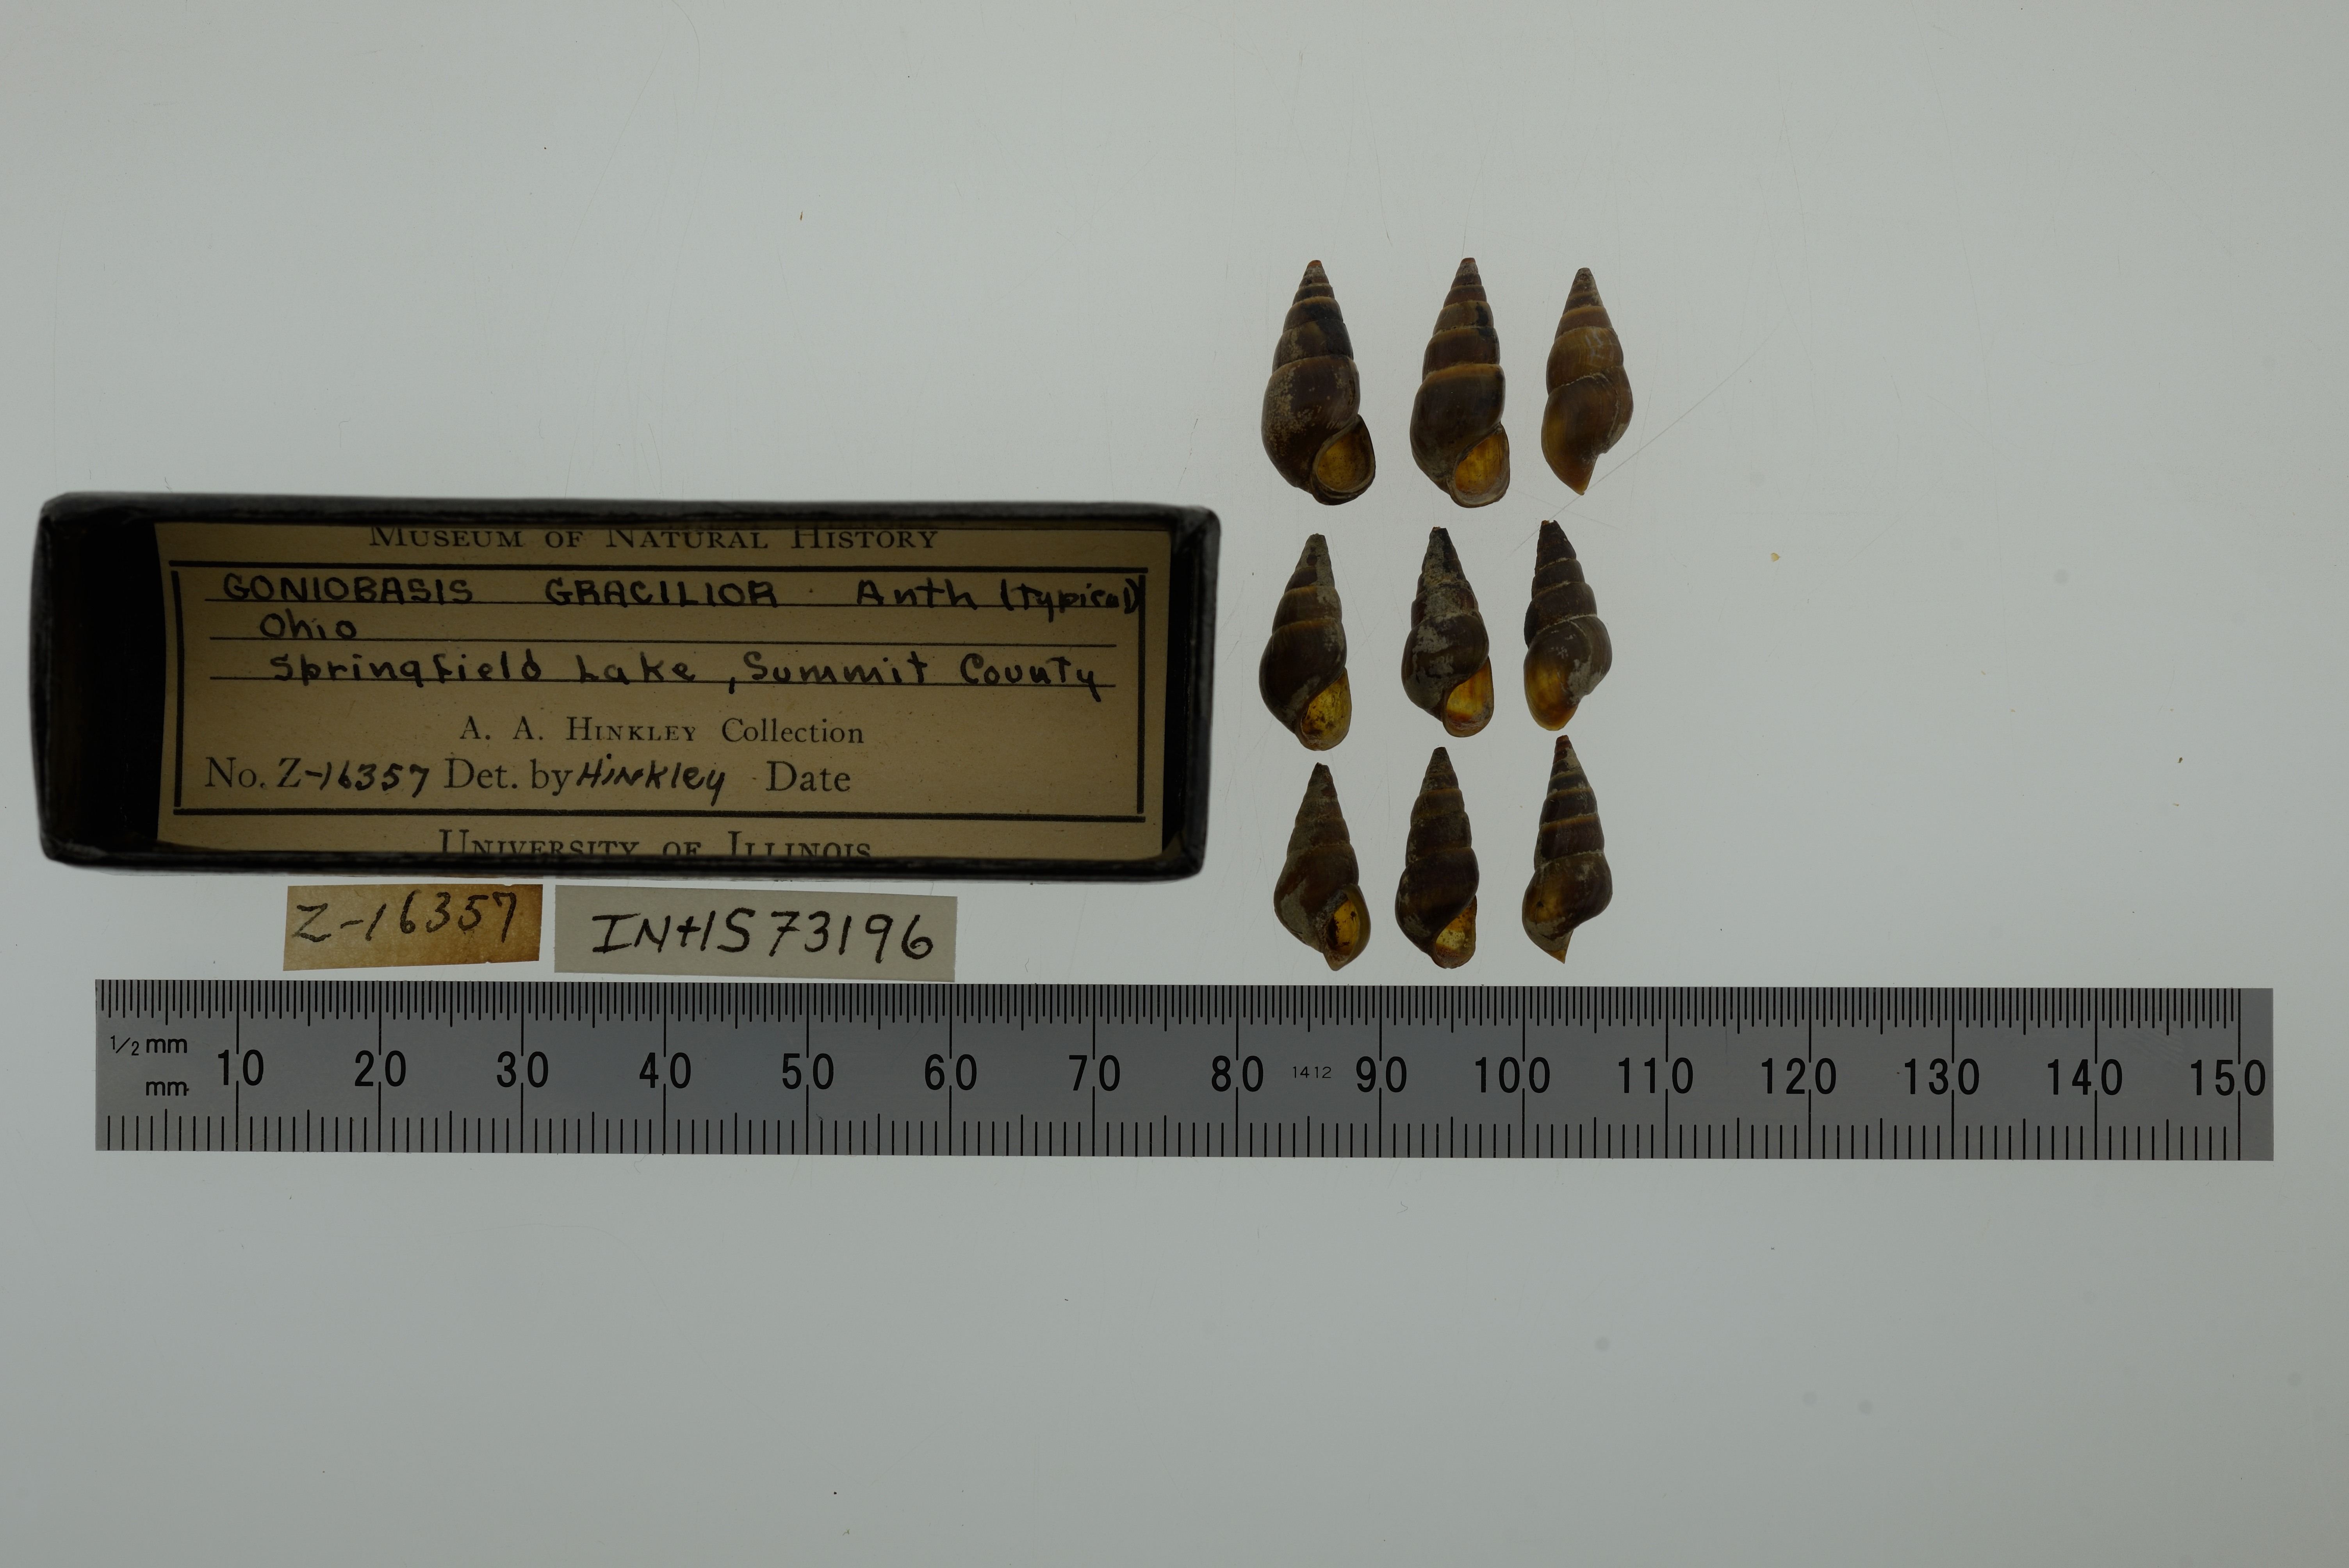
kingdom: Animalia
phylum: Mollusca
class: Gastropoda
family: Pleuroceridae
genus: Elimia
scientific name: Elimia livescens
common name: Liver elimia
